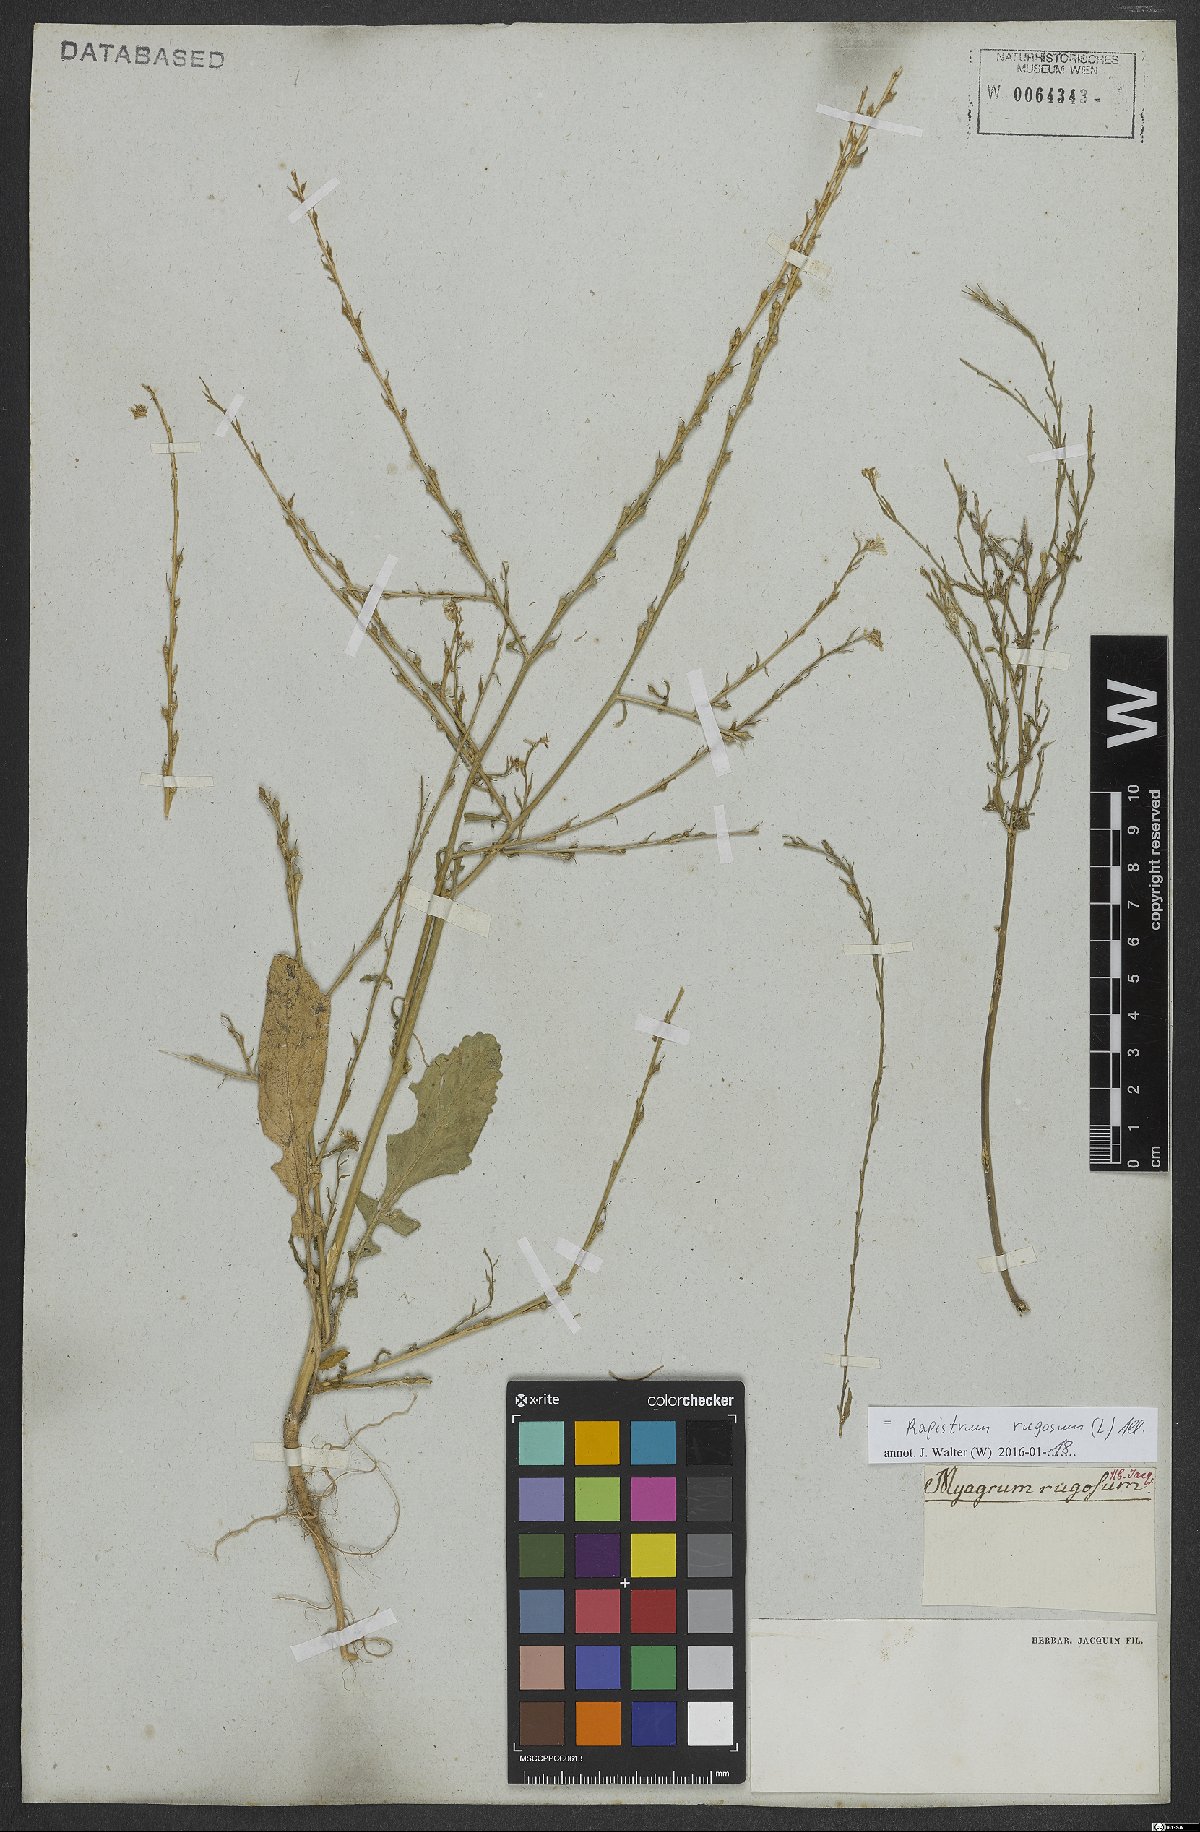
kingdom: Plantae
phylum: Tracheophyta
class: Magnoliopsida
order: Brassicales
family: Brassicaceae
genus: Rapistrum
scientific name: Rapistrum rugosum
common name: Annual bastardcabbage
